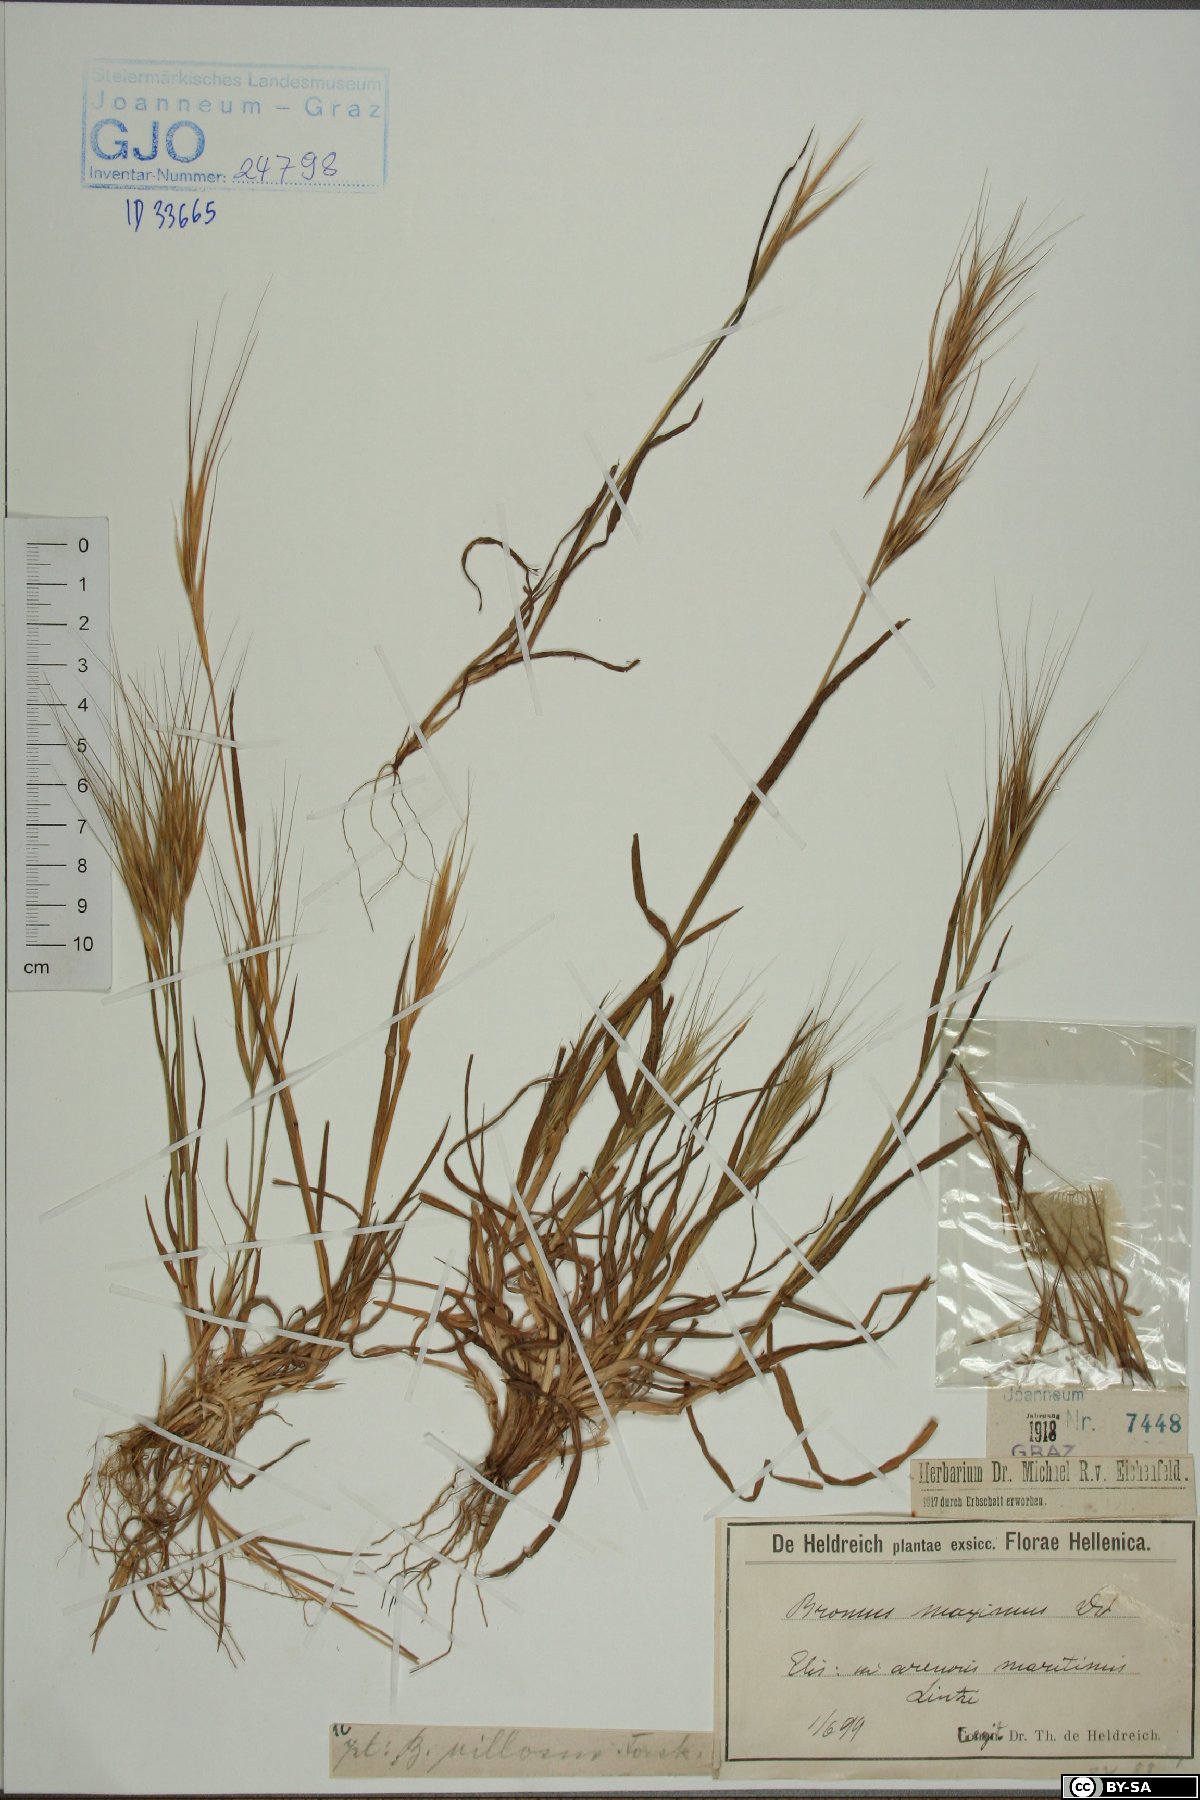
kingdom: Plantae
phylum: Tracheophyta
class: Liliopsida
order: Poales
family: Poaceae
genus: Bromus
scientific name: Bromus rigidus
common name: Ripgut brome
